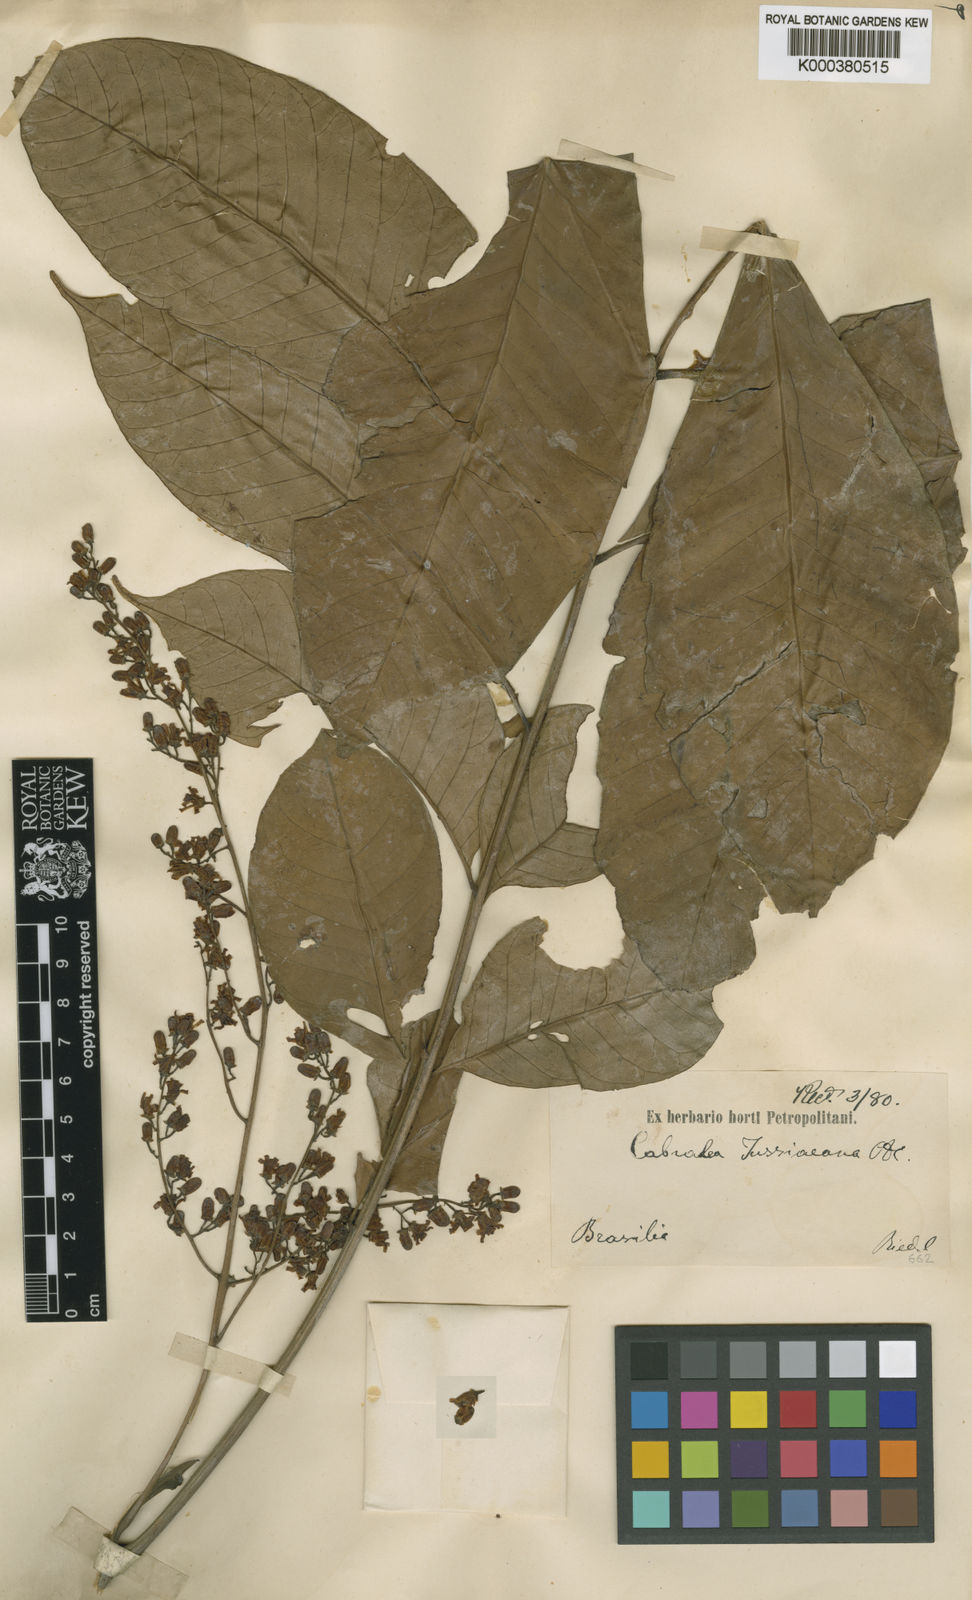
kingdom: Plantae
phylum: Tracheophyta
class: Magnoliopsida
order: Sapindales
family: Meliaceae
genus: Cabralea
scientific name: Cabralea canjerana
